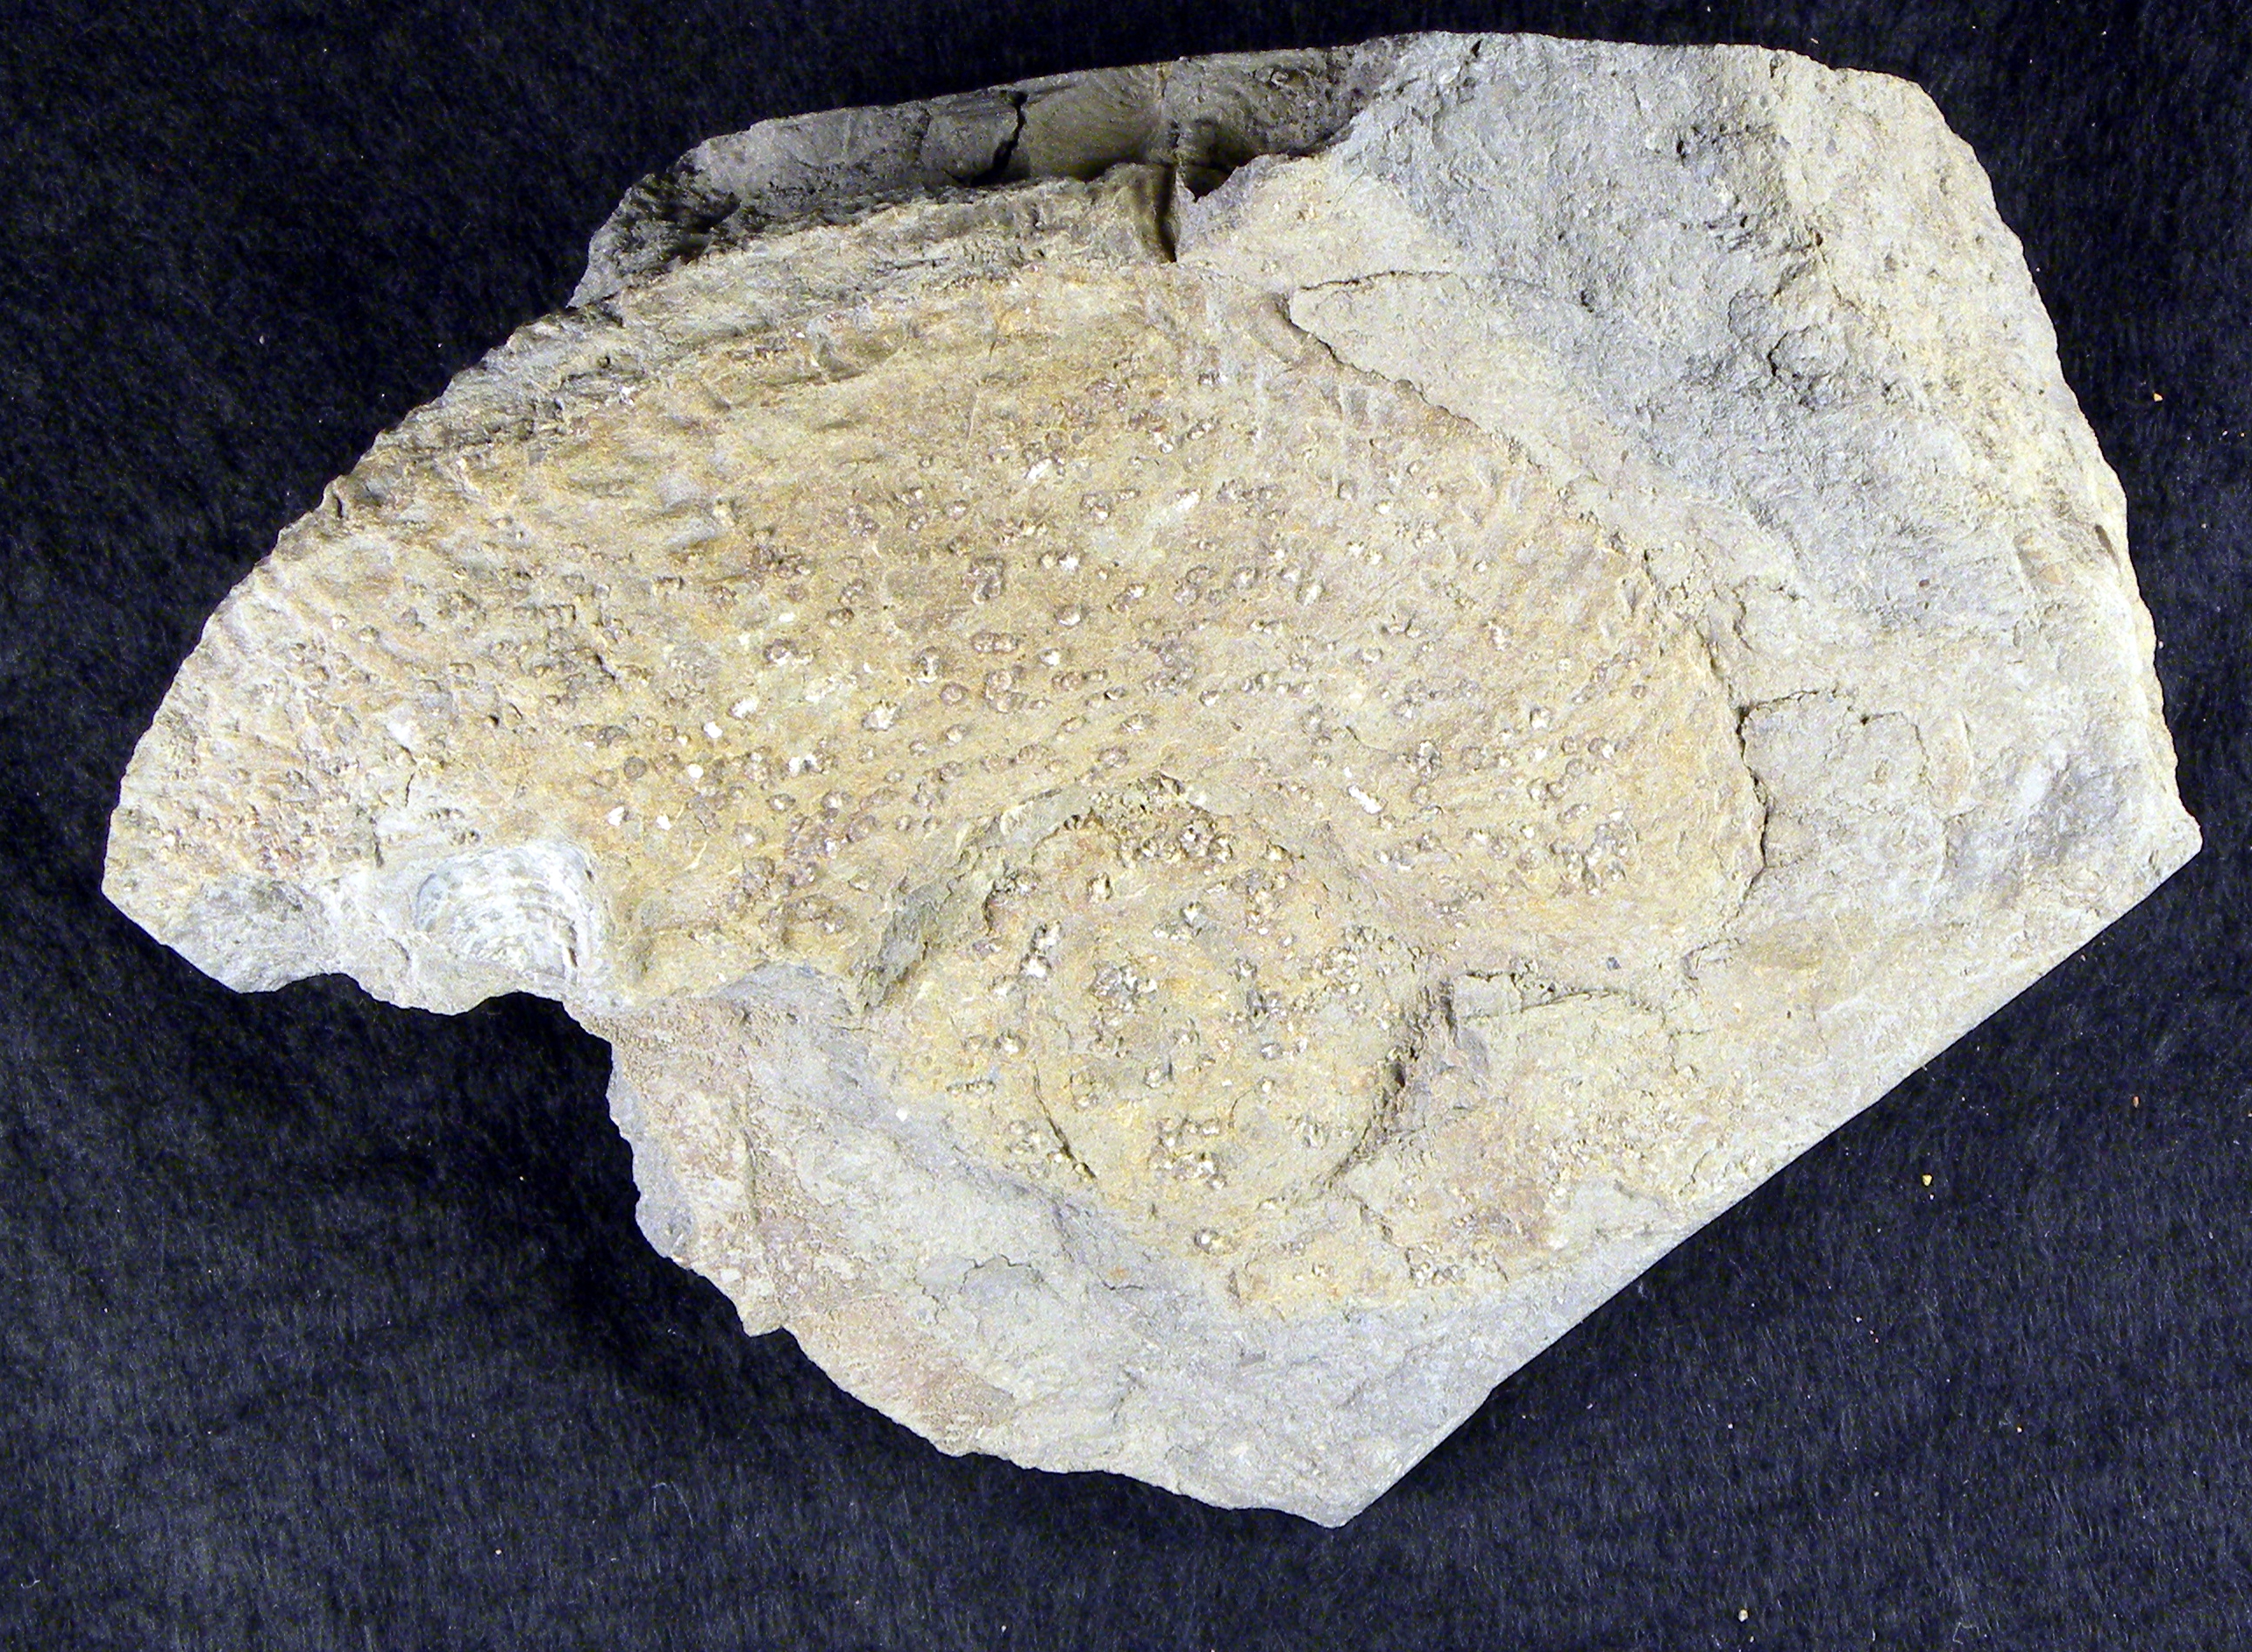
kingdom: Animalia
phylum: Mollusca
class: Cephalopoda
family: Lytoceratidae
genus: Lytoceras
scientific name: Lytoceras cornucopia
